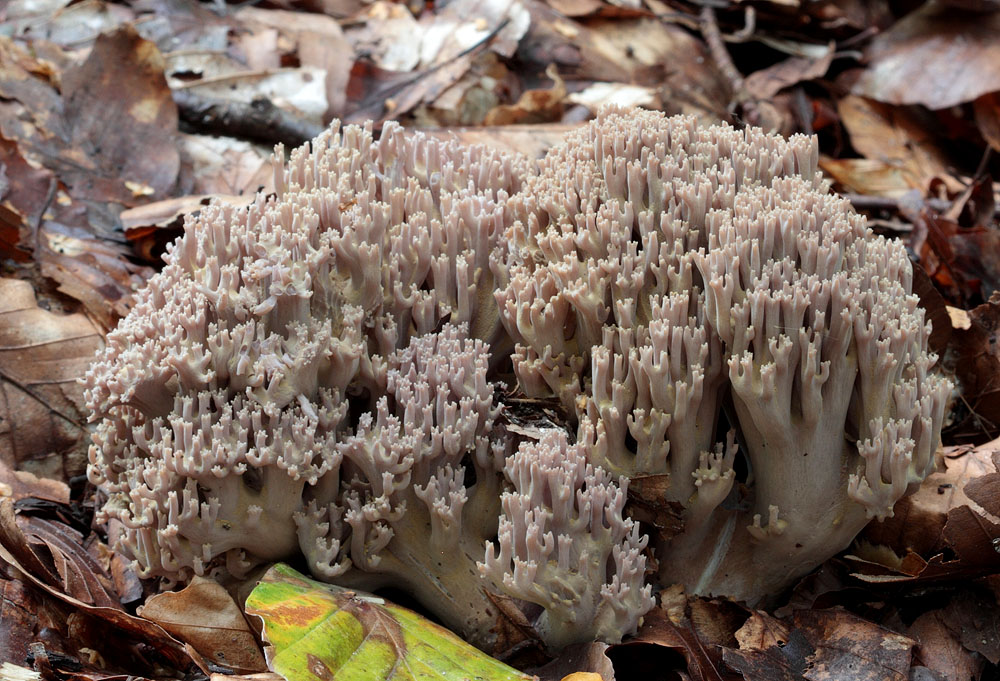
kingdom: Fungi
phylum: Basidiomycota
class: Agaricomycetes
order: Gomphales
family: Gomphaceae
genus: Ramaria
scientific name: Ramaria fumigata
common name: violet koralsvamp
